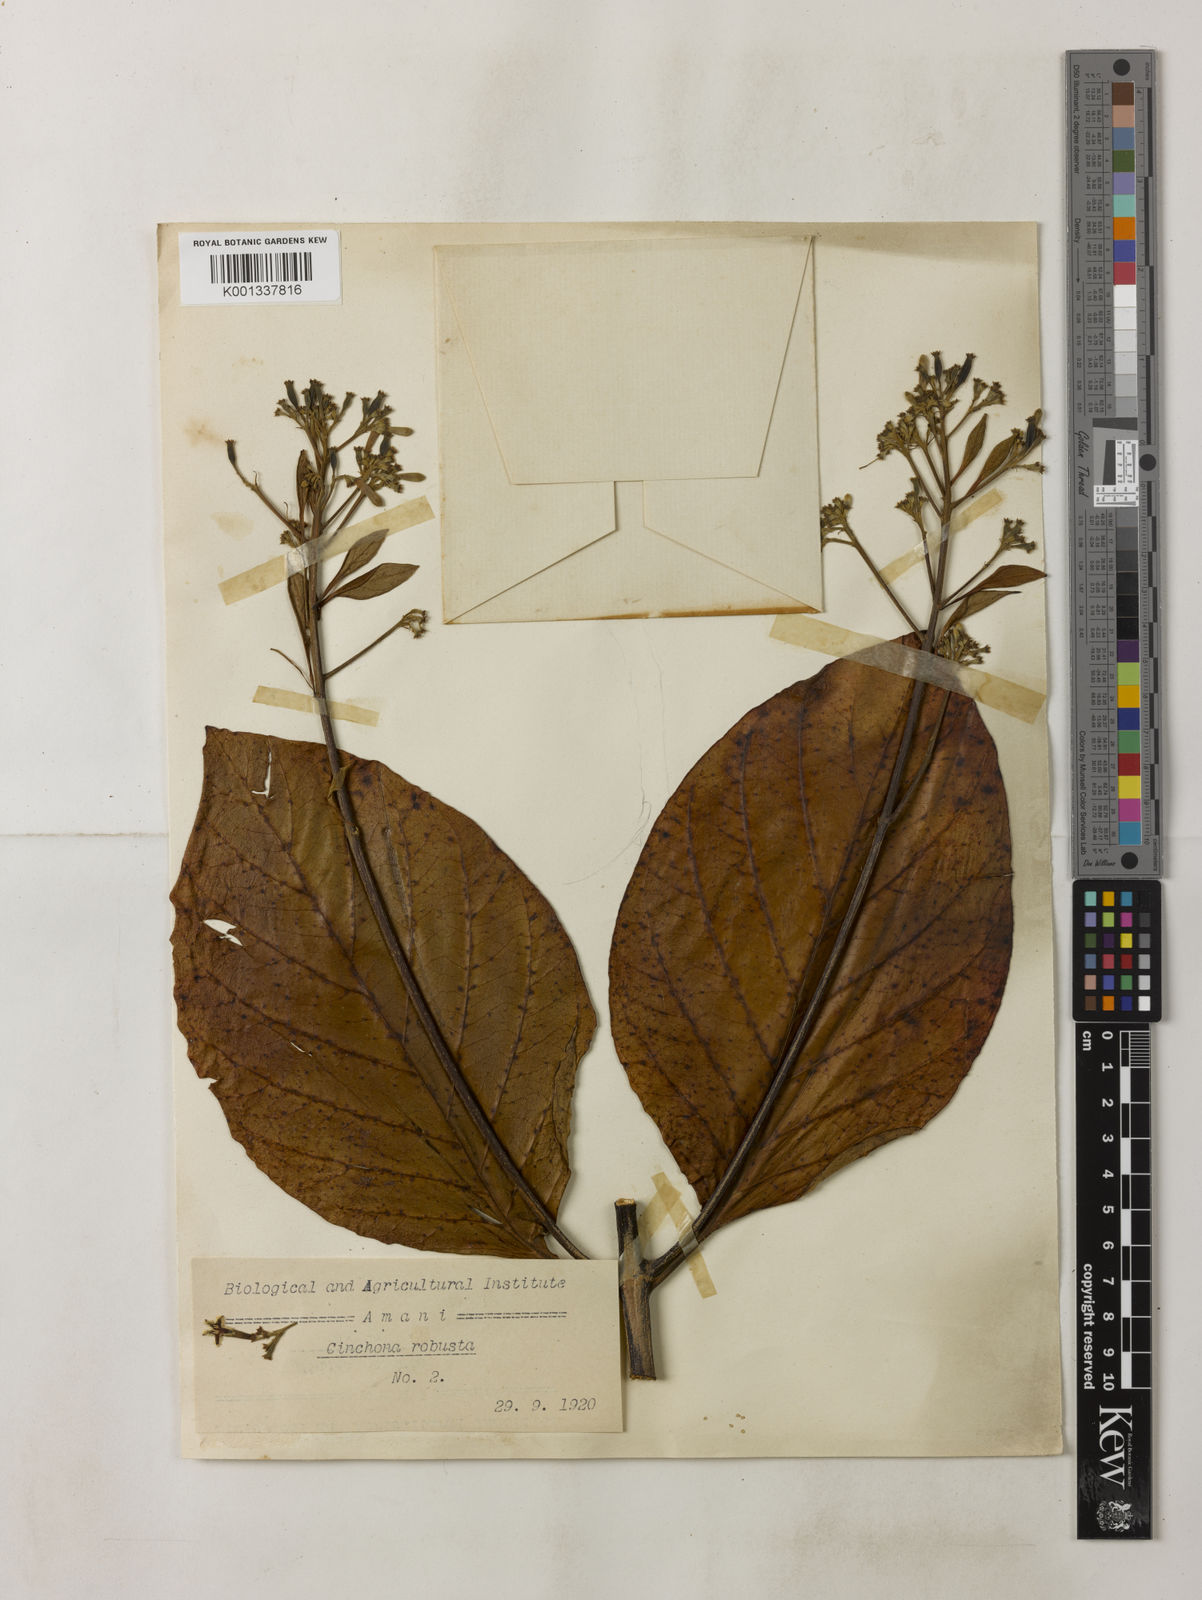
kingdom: Plantae
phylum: Tracheophyta
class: Magnoliopsida
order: Gentianales
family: Rubiaceae
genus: Cinchona
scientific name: Cinchona officinalis
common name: Lojabark
